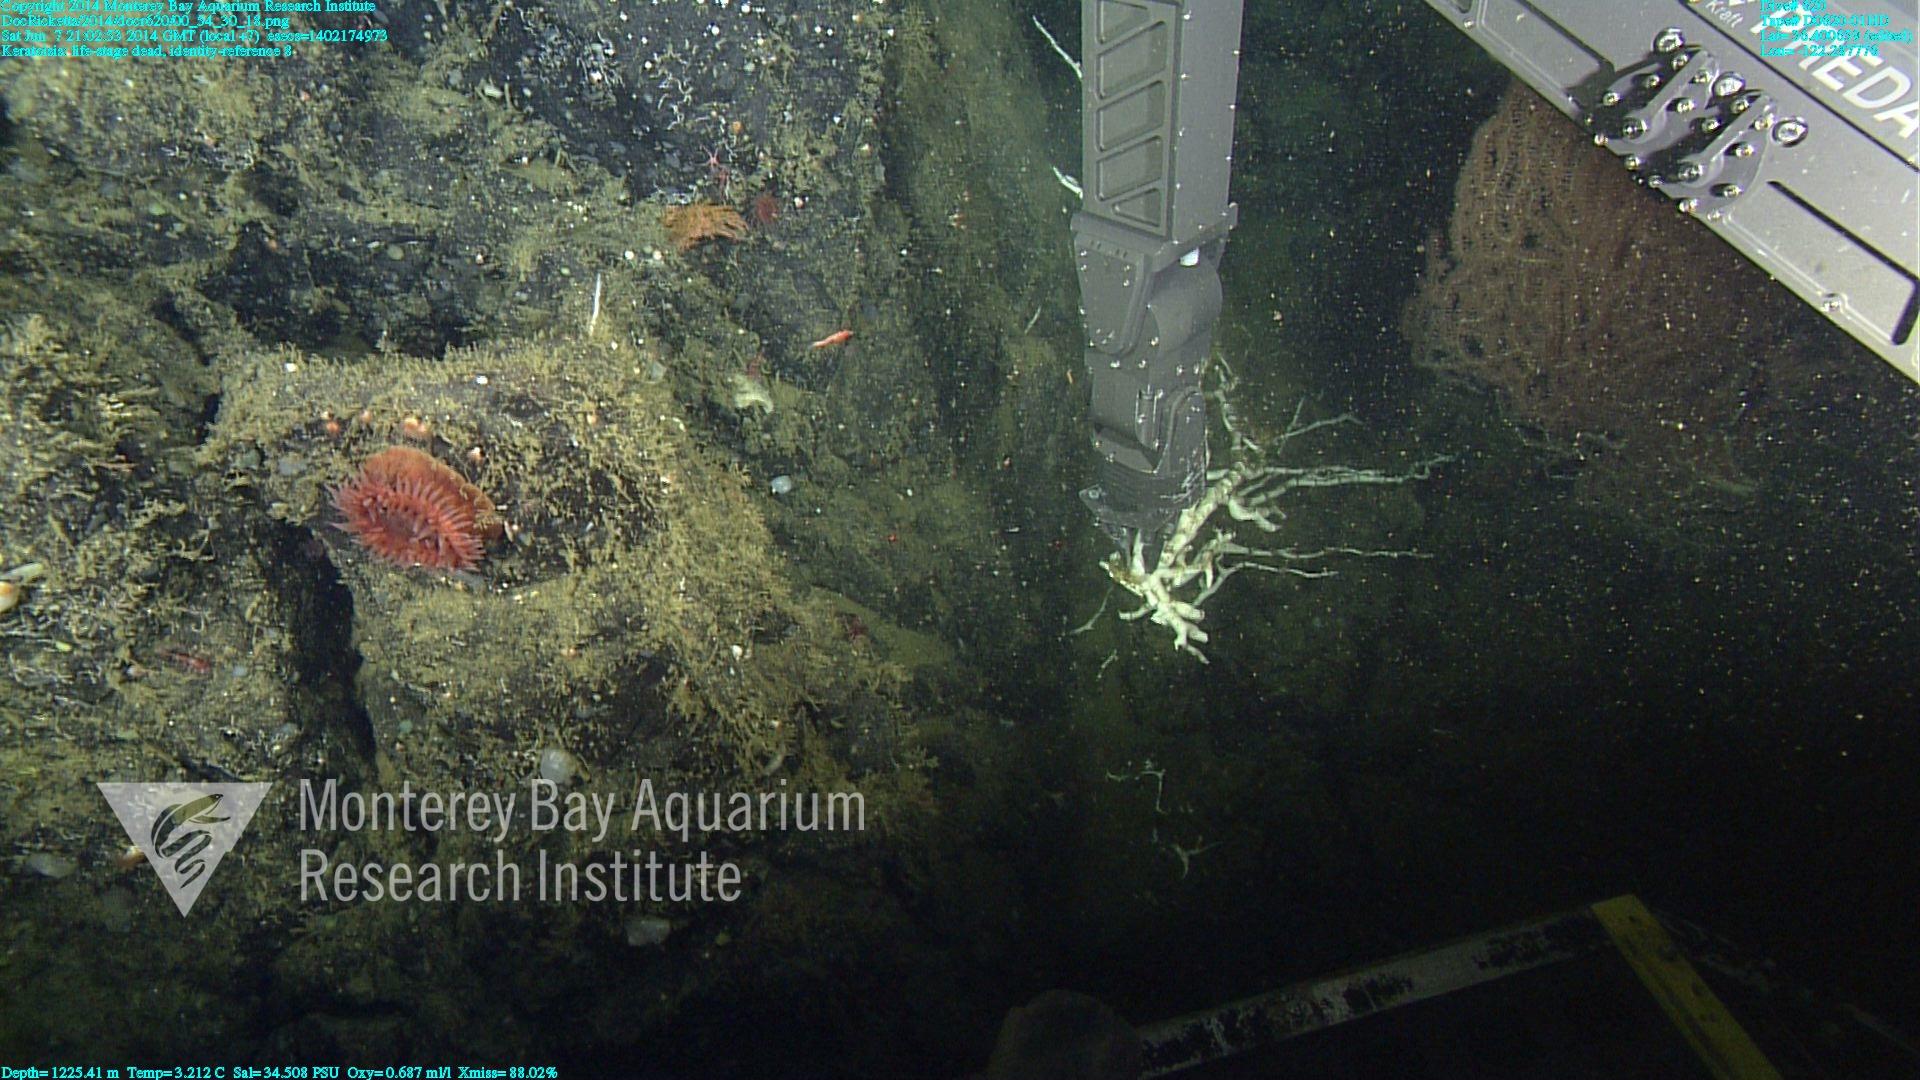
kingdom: Animalia
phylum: Cnidaria
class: Anthozoa
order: Scleralcyonacea
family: Keratoisididae
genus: Keratoisis
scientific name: Keratoisis
